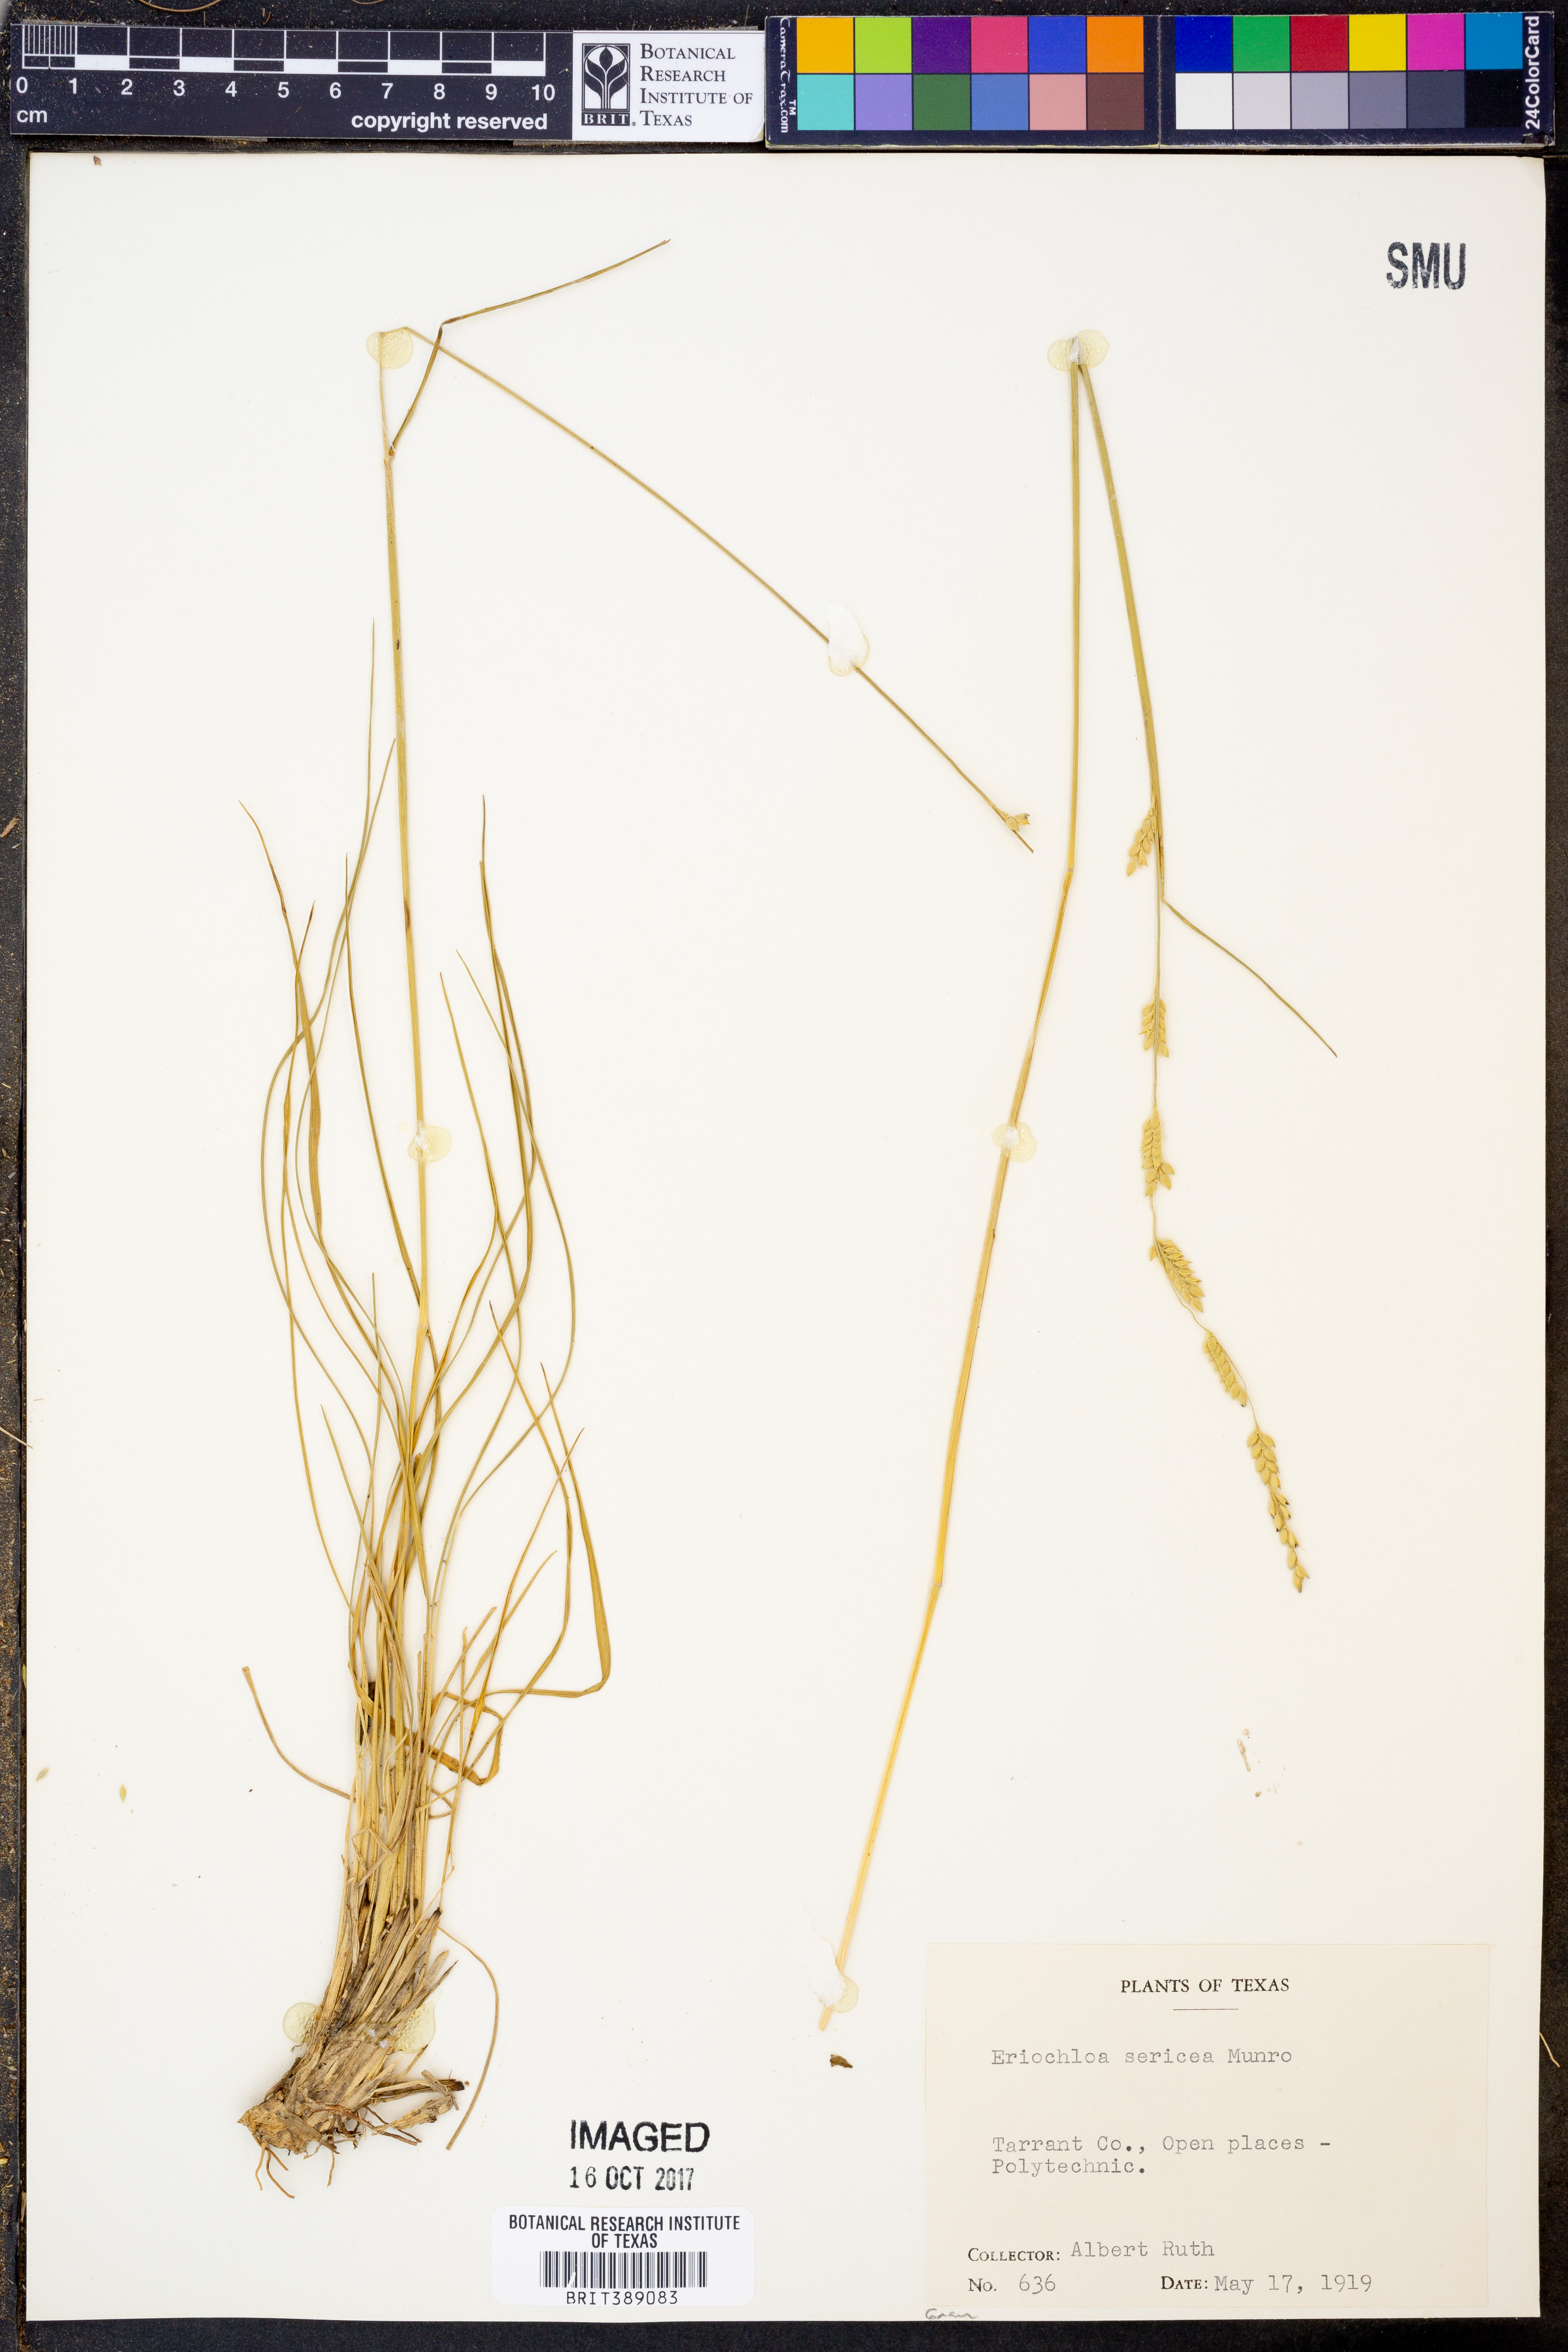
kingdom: Plantae
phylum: Tracheophyta
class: Liliopsida
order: Poales
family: Poaceae
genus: Eriochloa
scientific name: Eriochloa sericea
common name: Texas cup grass
